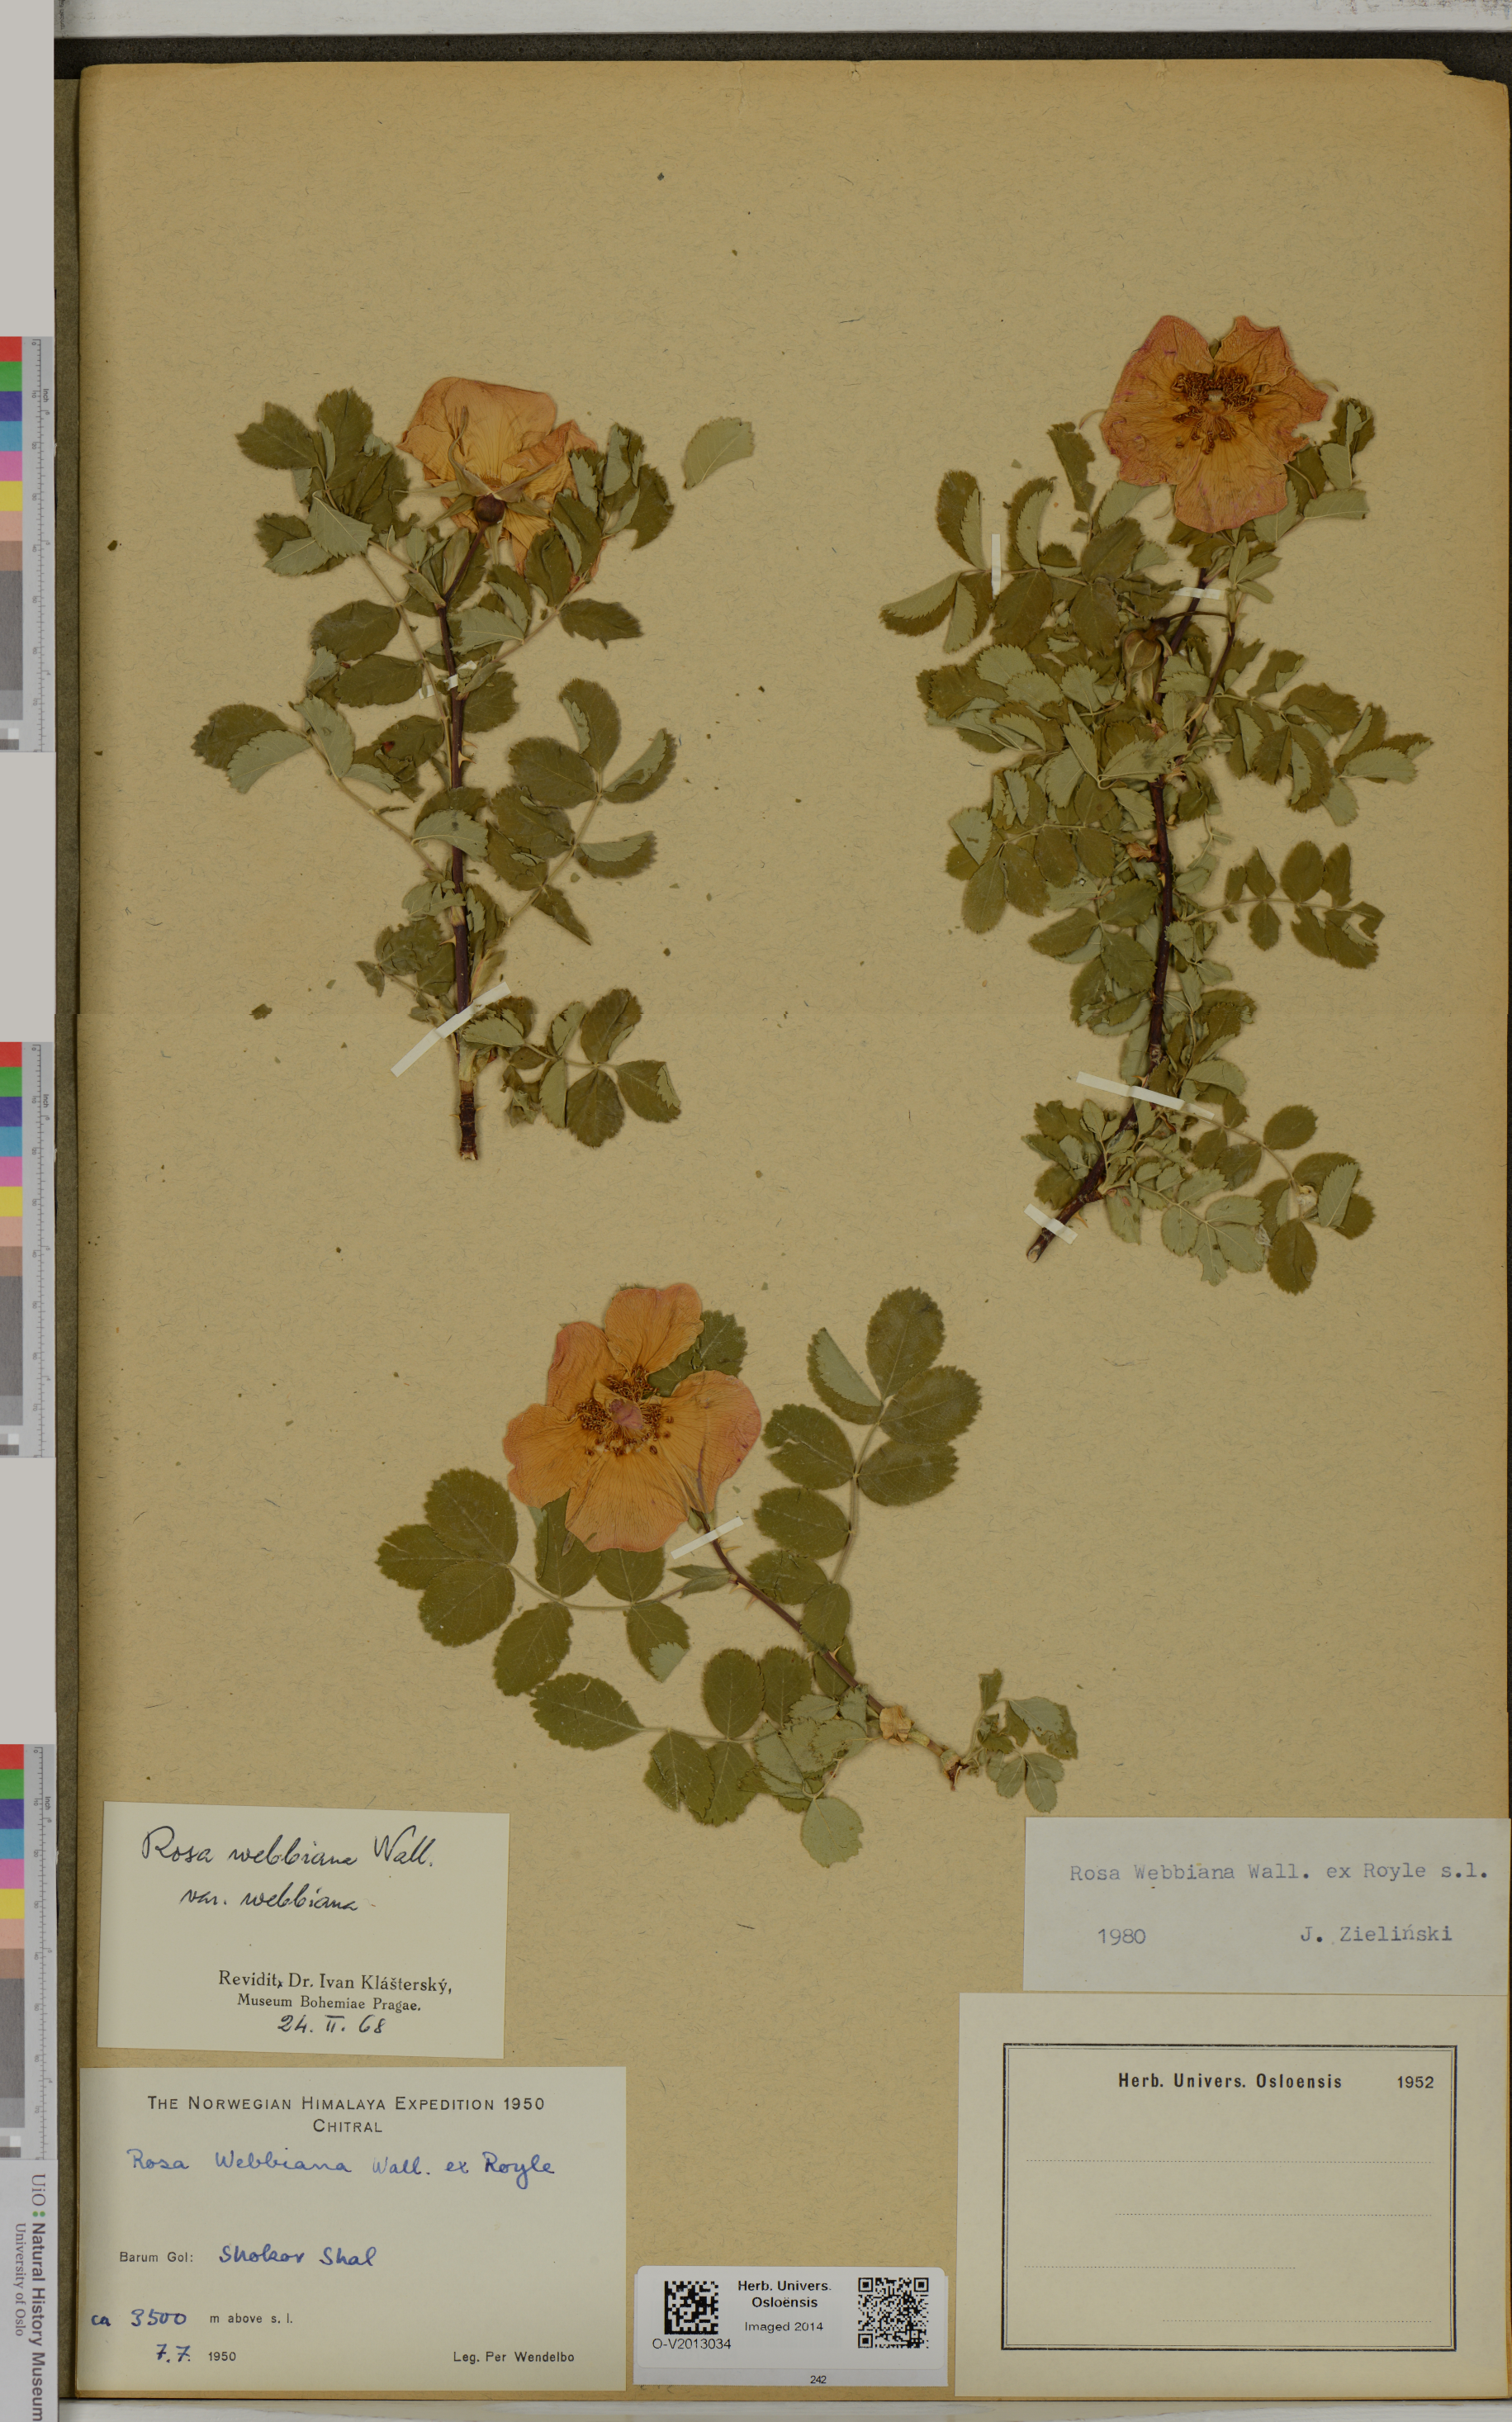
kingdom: Plantae
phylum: Tracheophyta
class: Magnoliopsida
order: Rosales
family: Rosaceae
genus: Rosa
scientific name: Rosa webbiana
